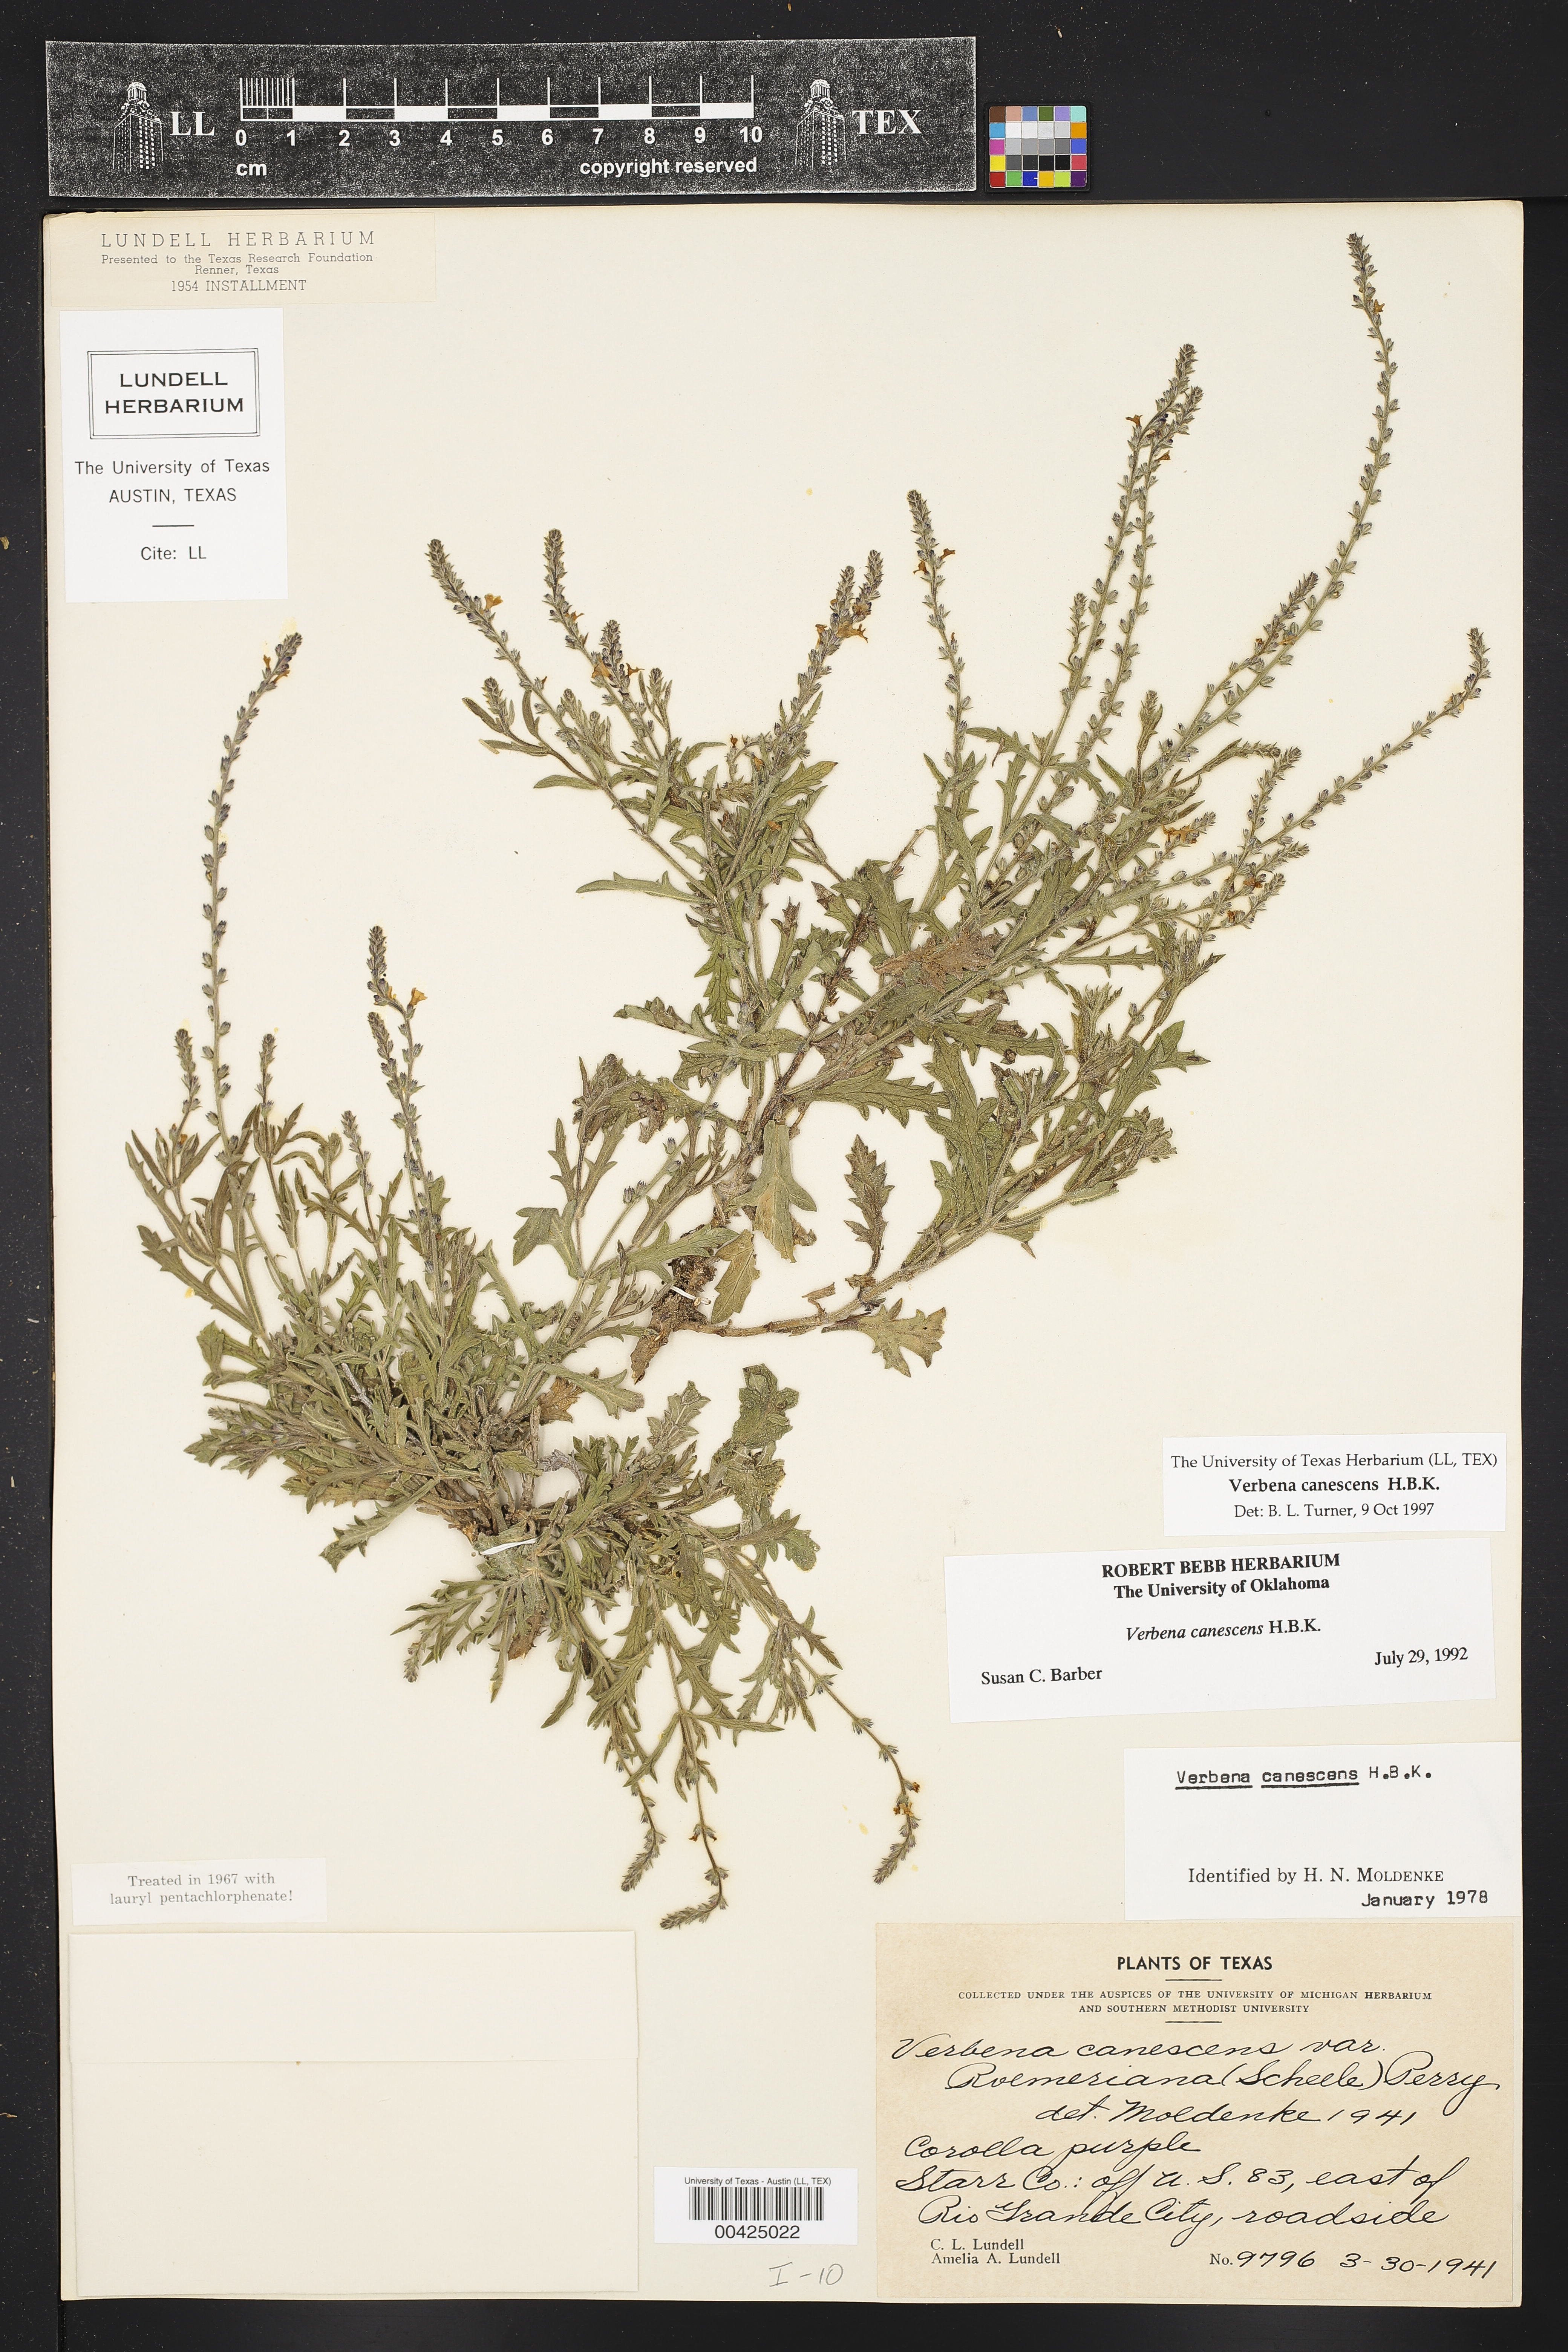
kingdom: Plantae
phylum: Tracheophyta
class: Magnoliopsida
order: Lamiales
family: Verbenaceae
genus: Verbena
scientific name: Verbena canescens
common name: Gray vervain
